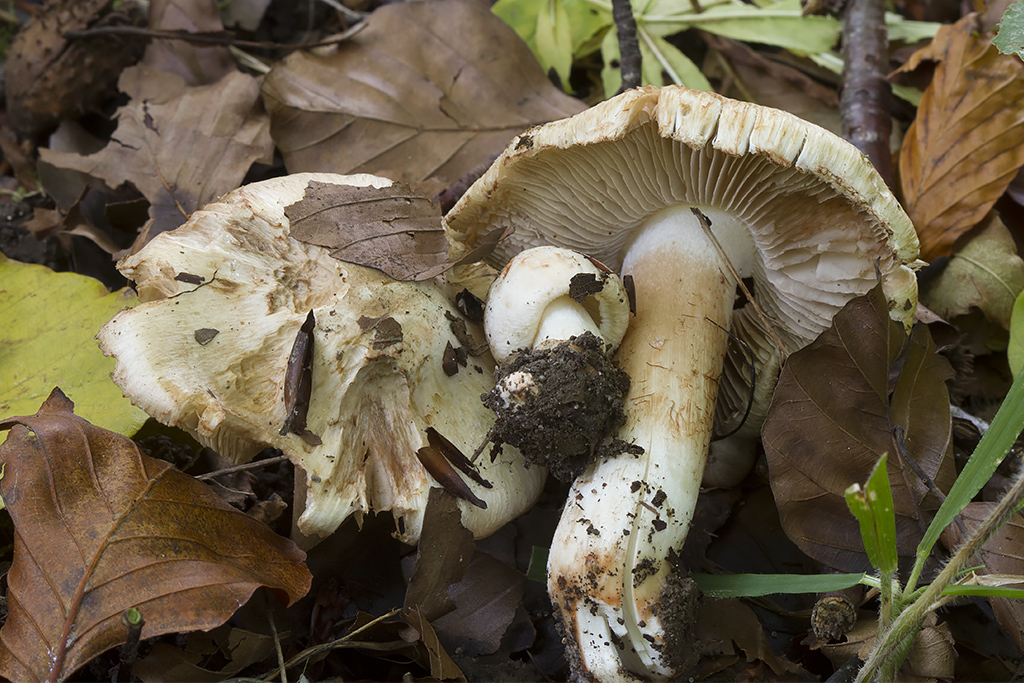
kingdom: Fungi
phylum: Basidiomycota
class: Agaricomycetes
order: Agaricales
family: Inocybaceae
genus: Inocybe
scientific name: Inocybe incarnata
